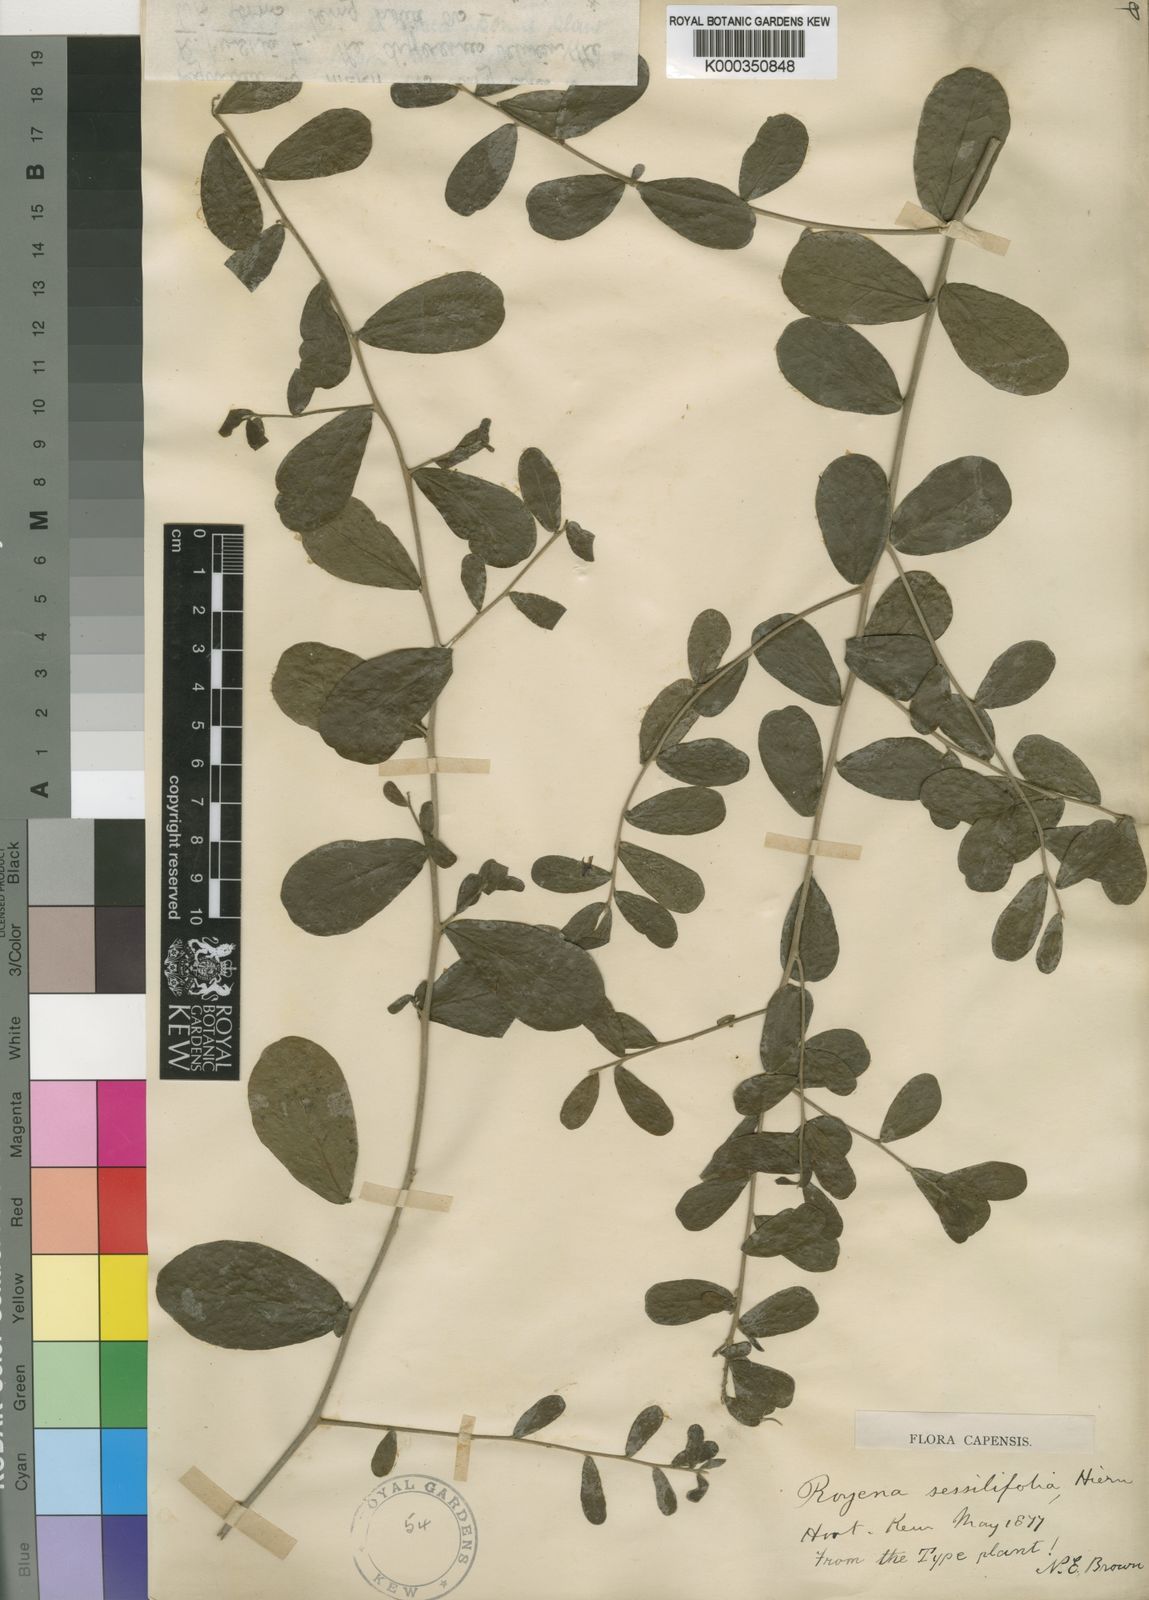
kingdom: Plantae
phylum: Tracheophyta
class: Magnoliopsida
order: Ericales
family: Ebenaceae
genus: Diospyros
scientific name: Diospyros
